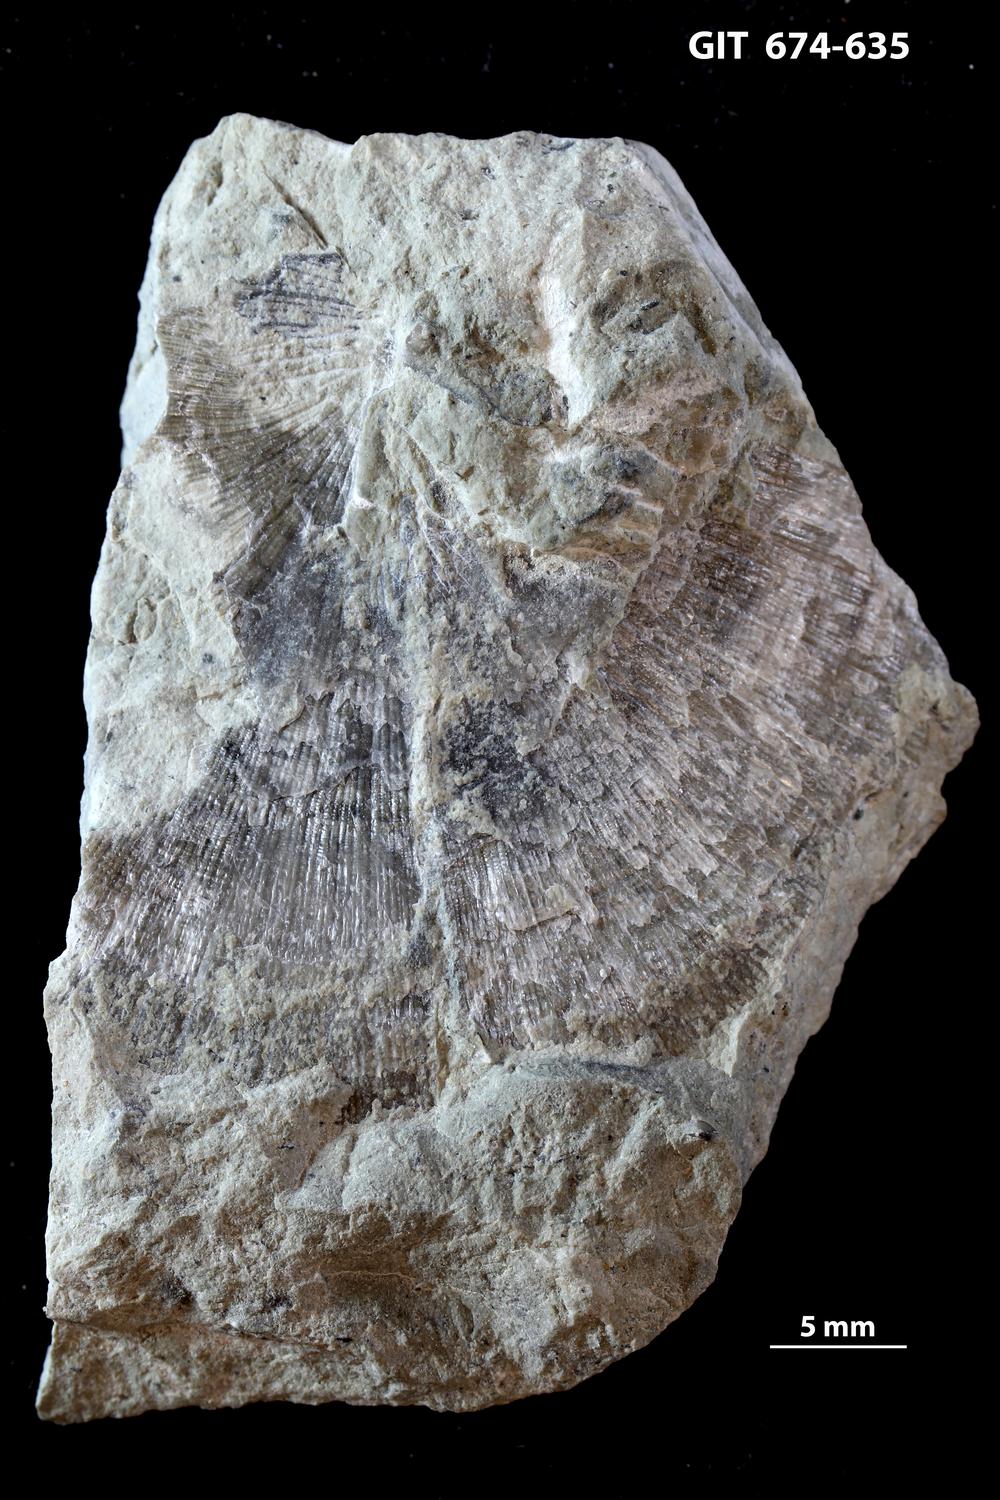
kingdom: Animalia
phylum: Brachiopoda
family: Rafinesquinidae
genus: Kjaerina
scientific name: Kjaerina
